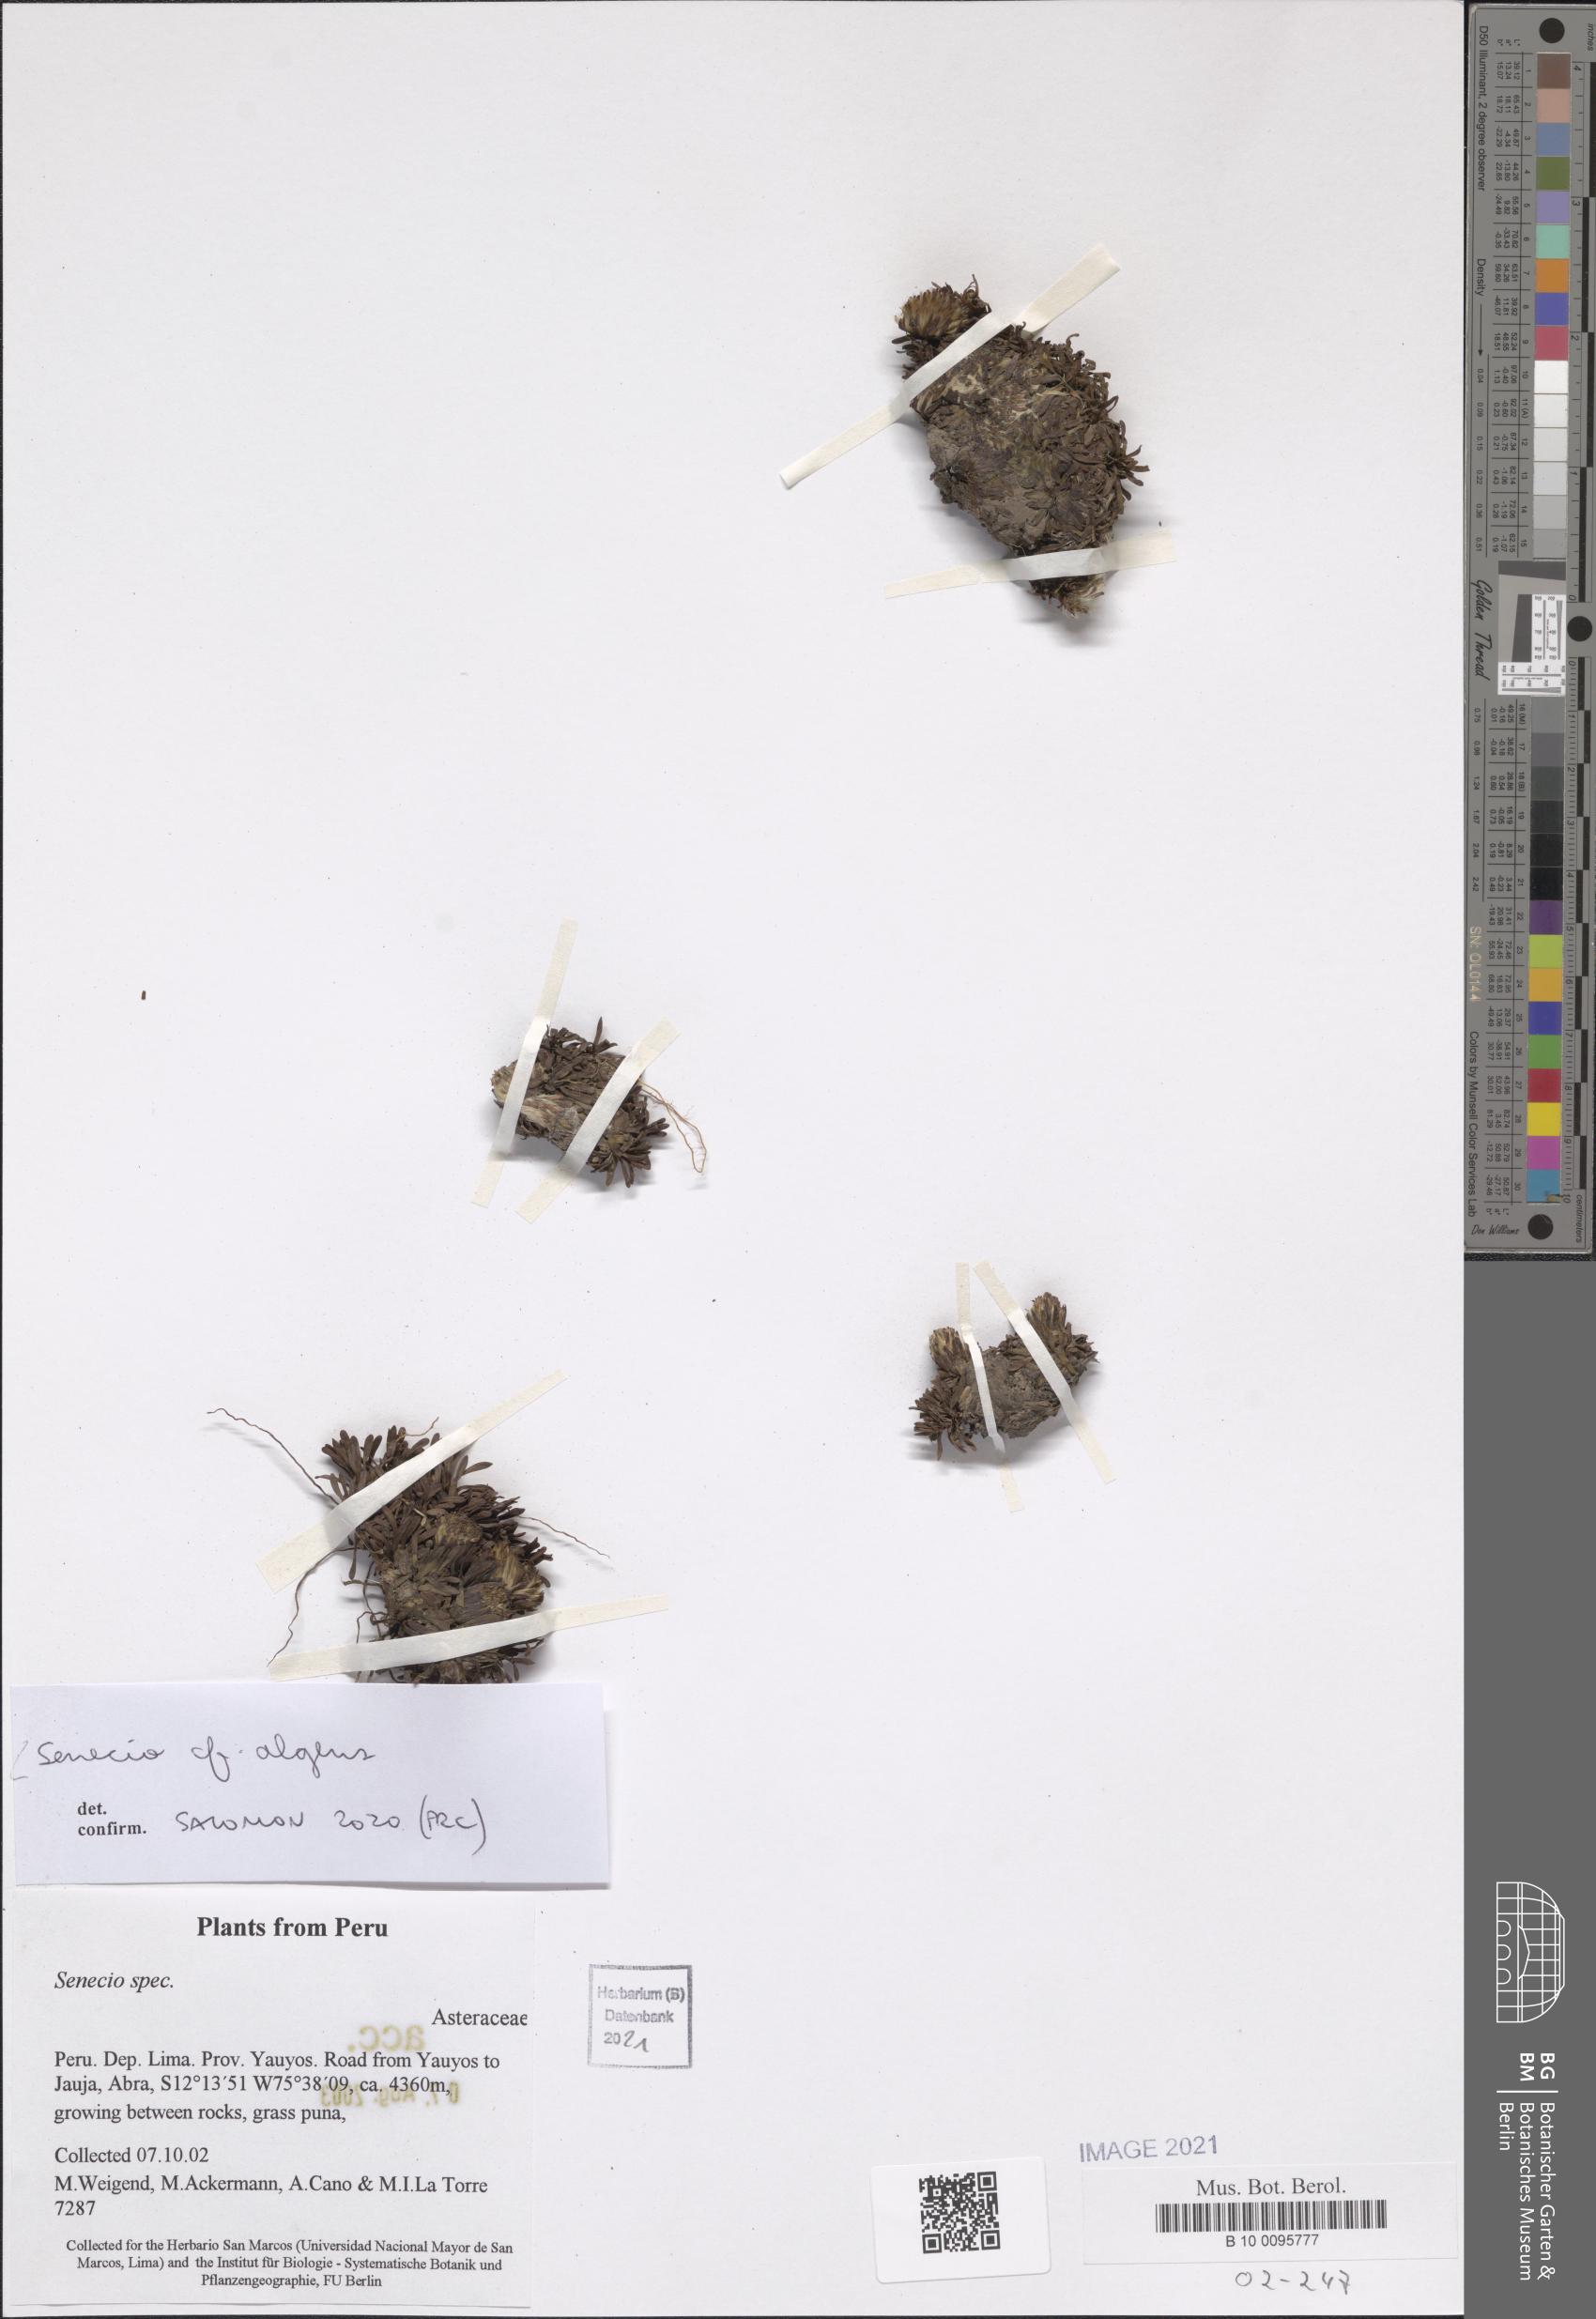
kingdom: Plantae
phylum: Tracheophyta
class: Magnoliopsida
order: Asterales
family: Asteraceae
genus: Senecio
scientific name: Senecio gamolepis
